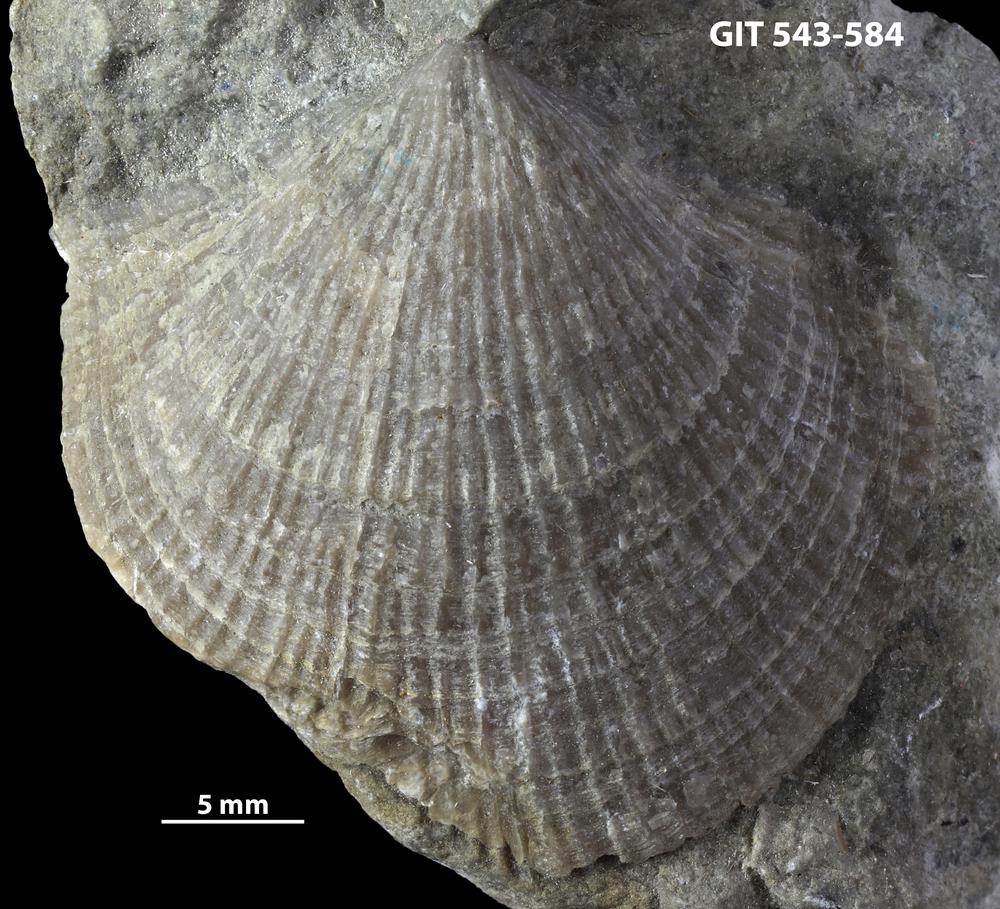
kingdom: Animalia
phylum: Brachiopoda
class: Rhynchonellata
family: Clitambonitidae
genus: Vellamo
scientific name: Vellamo Orthis verneuili
